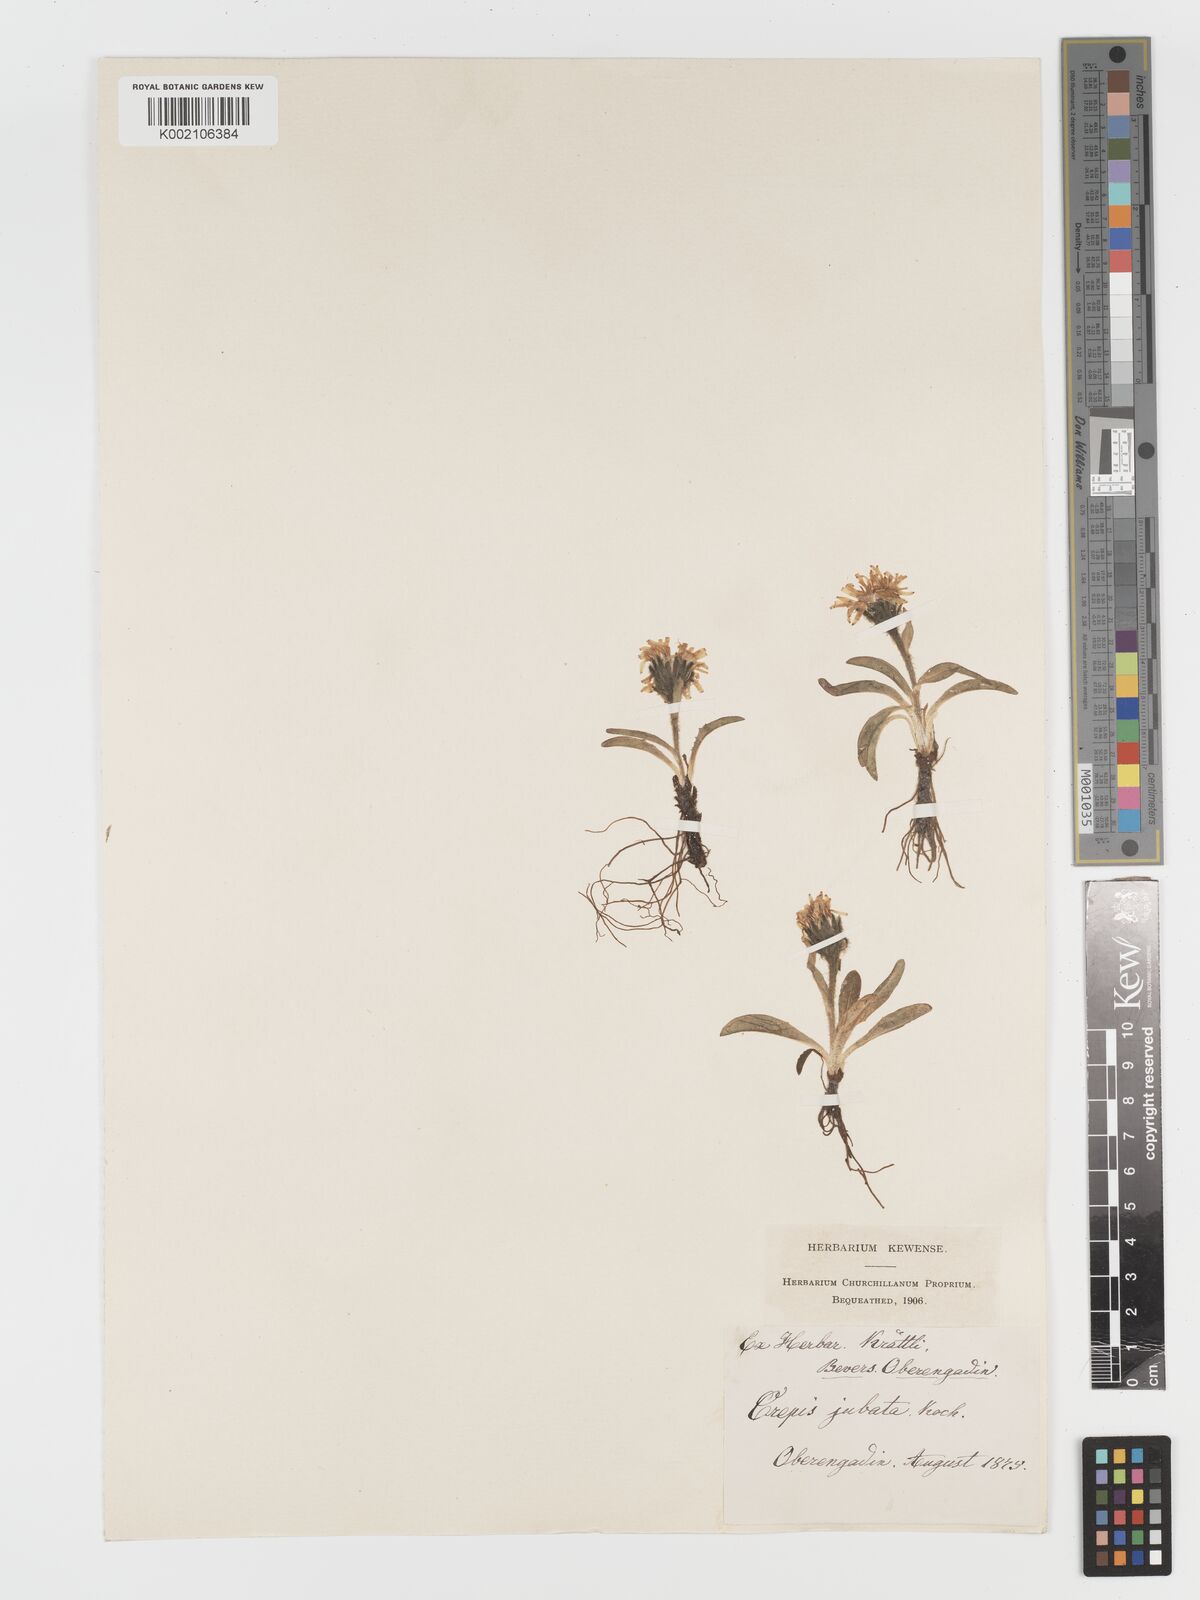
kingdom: Plantae
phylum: Tracheophyta
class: Magnoliopsida
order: Asterales
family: Asteraceae
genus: Crepis
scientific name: Crepis rhaetica
